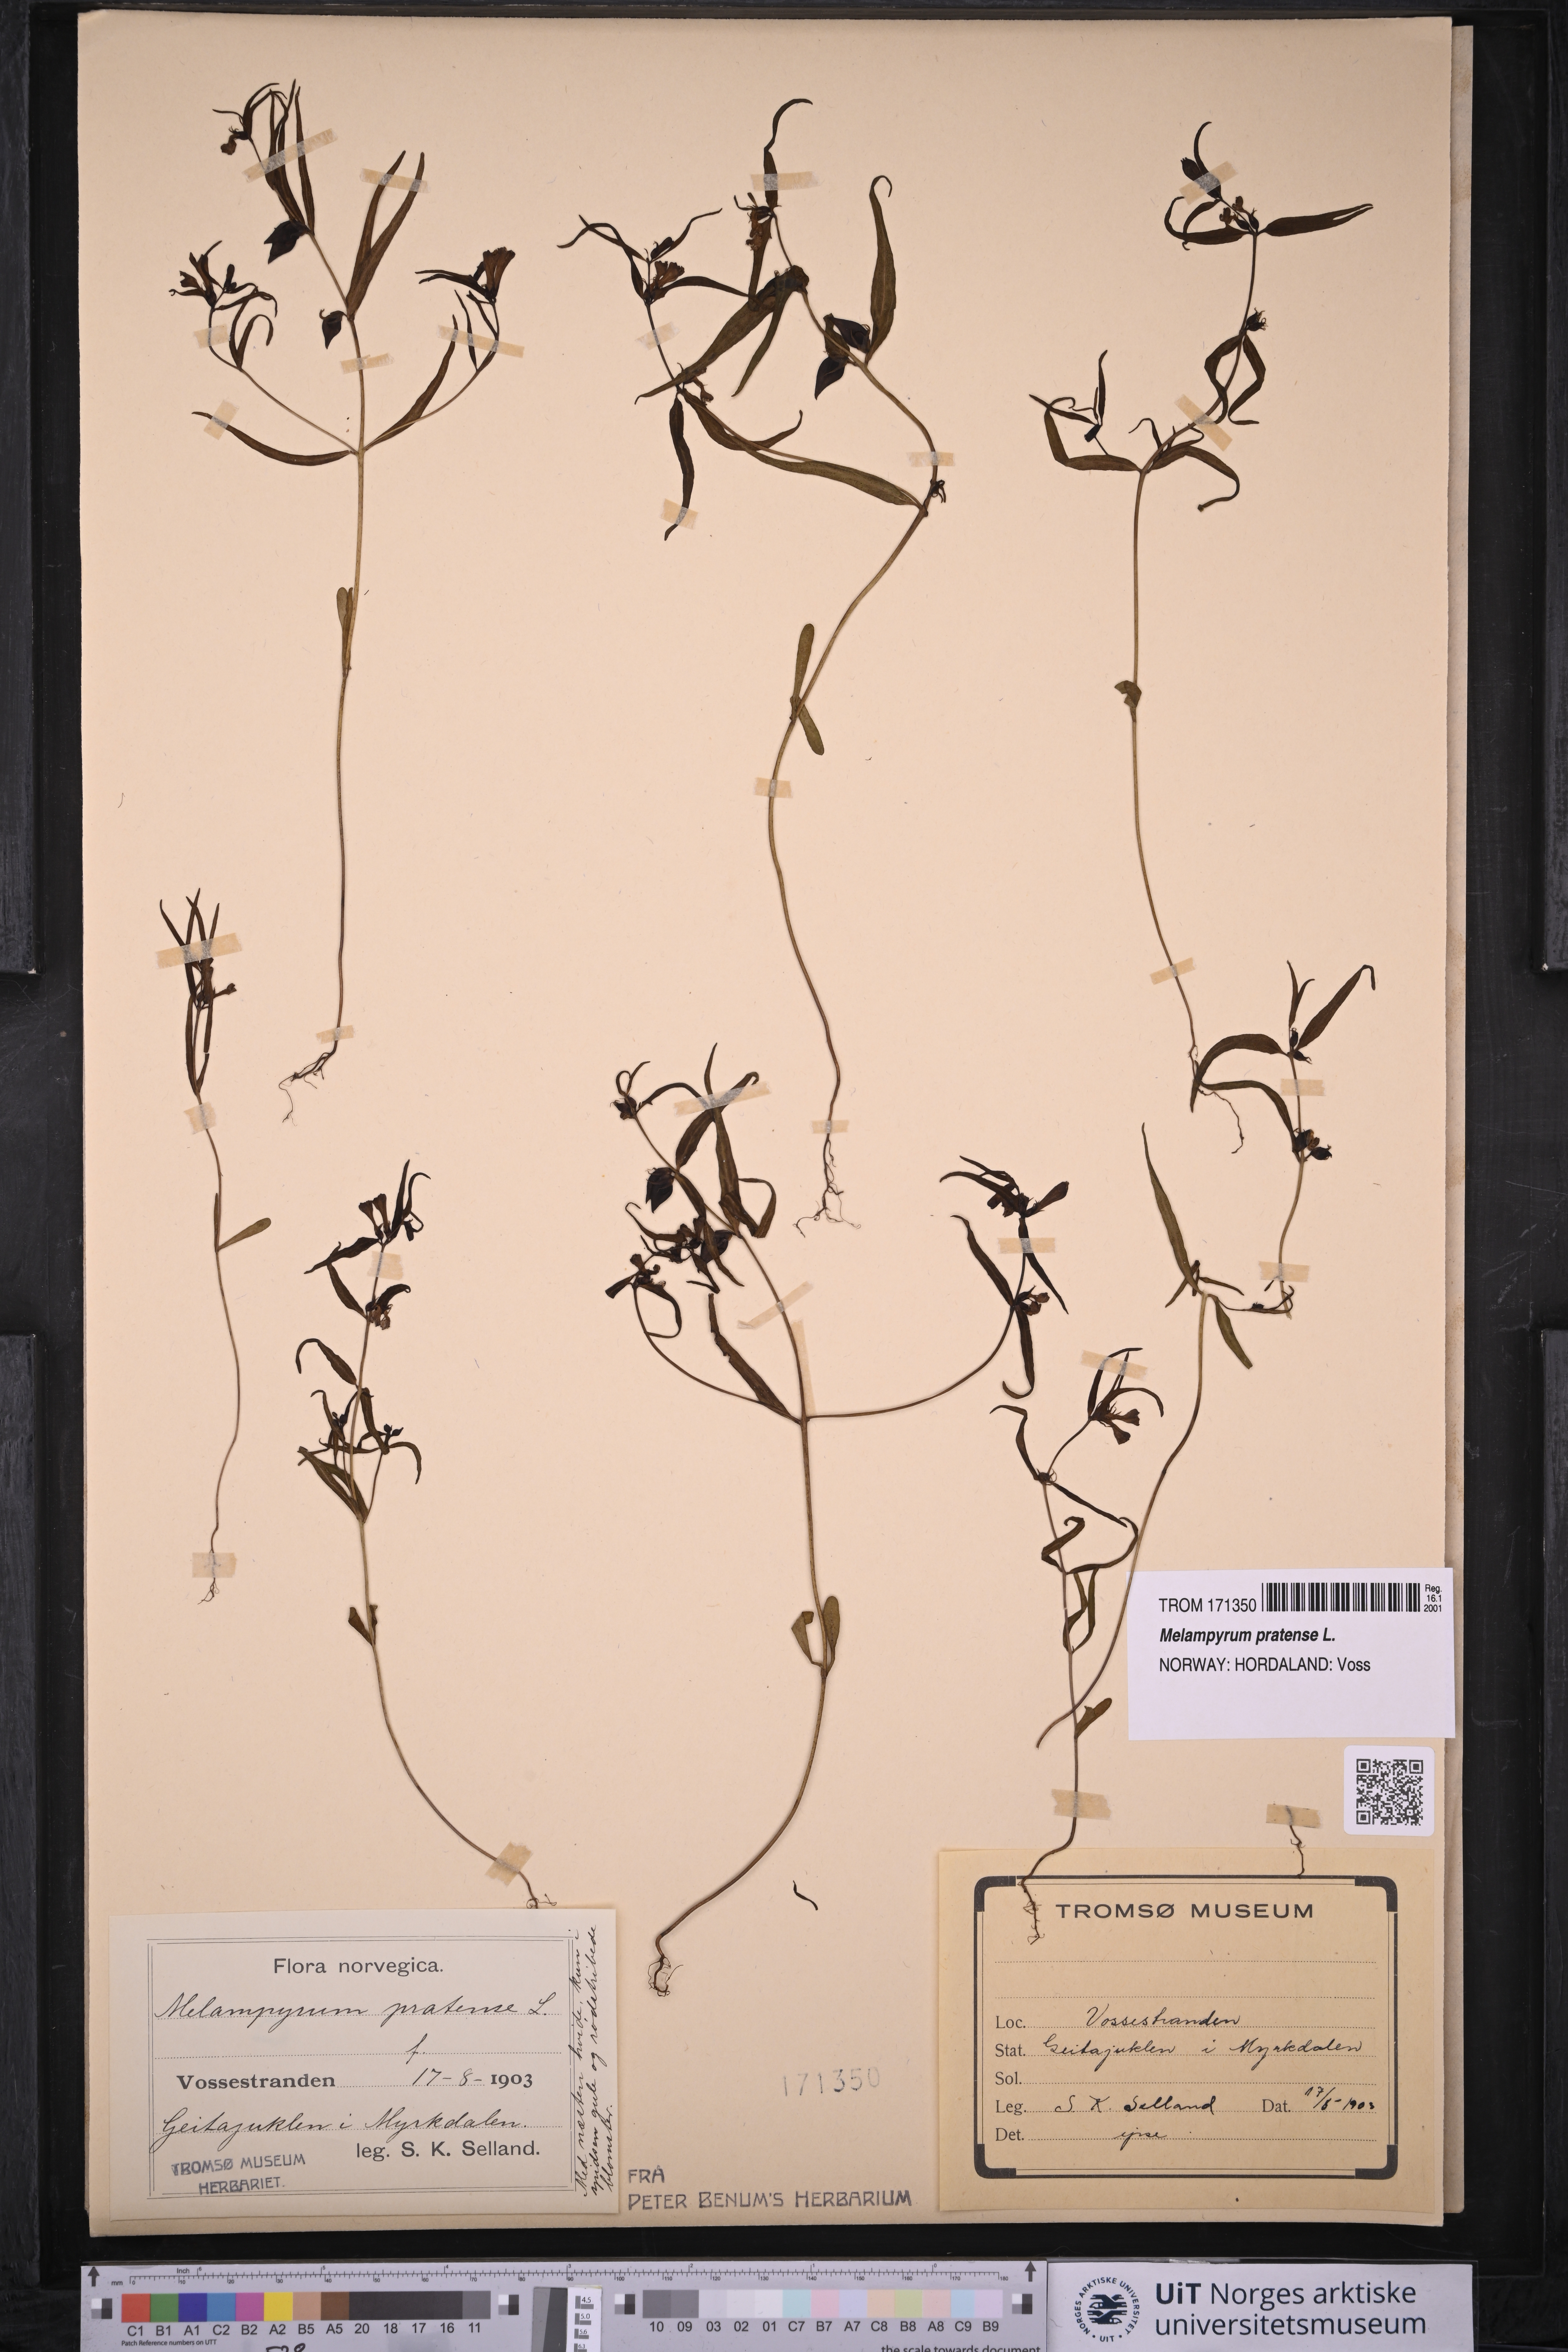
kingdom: Plantae
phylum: Tracheophyta
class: Magnoliopsida
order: Lamiales
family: Orobanchaceae
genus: Melampyrum
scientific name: Melampyrum pratense
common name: Common cow-wheat
